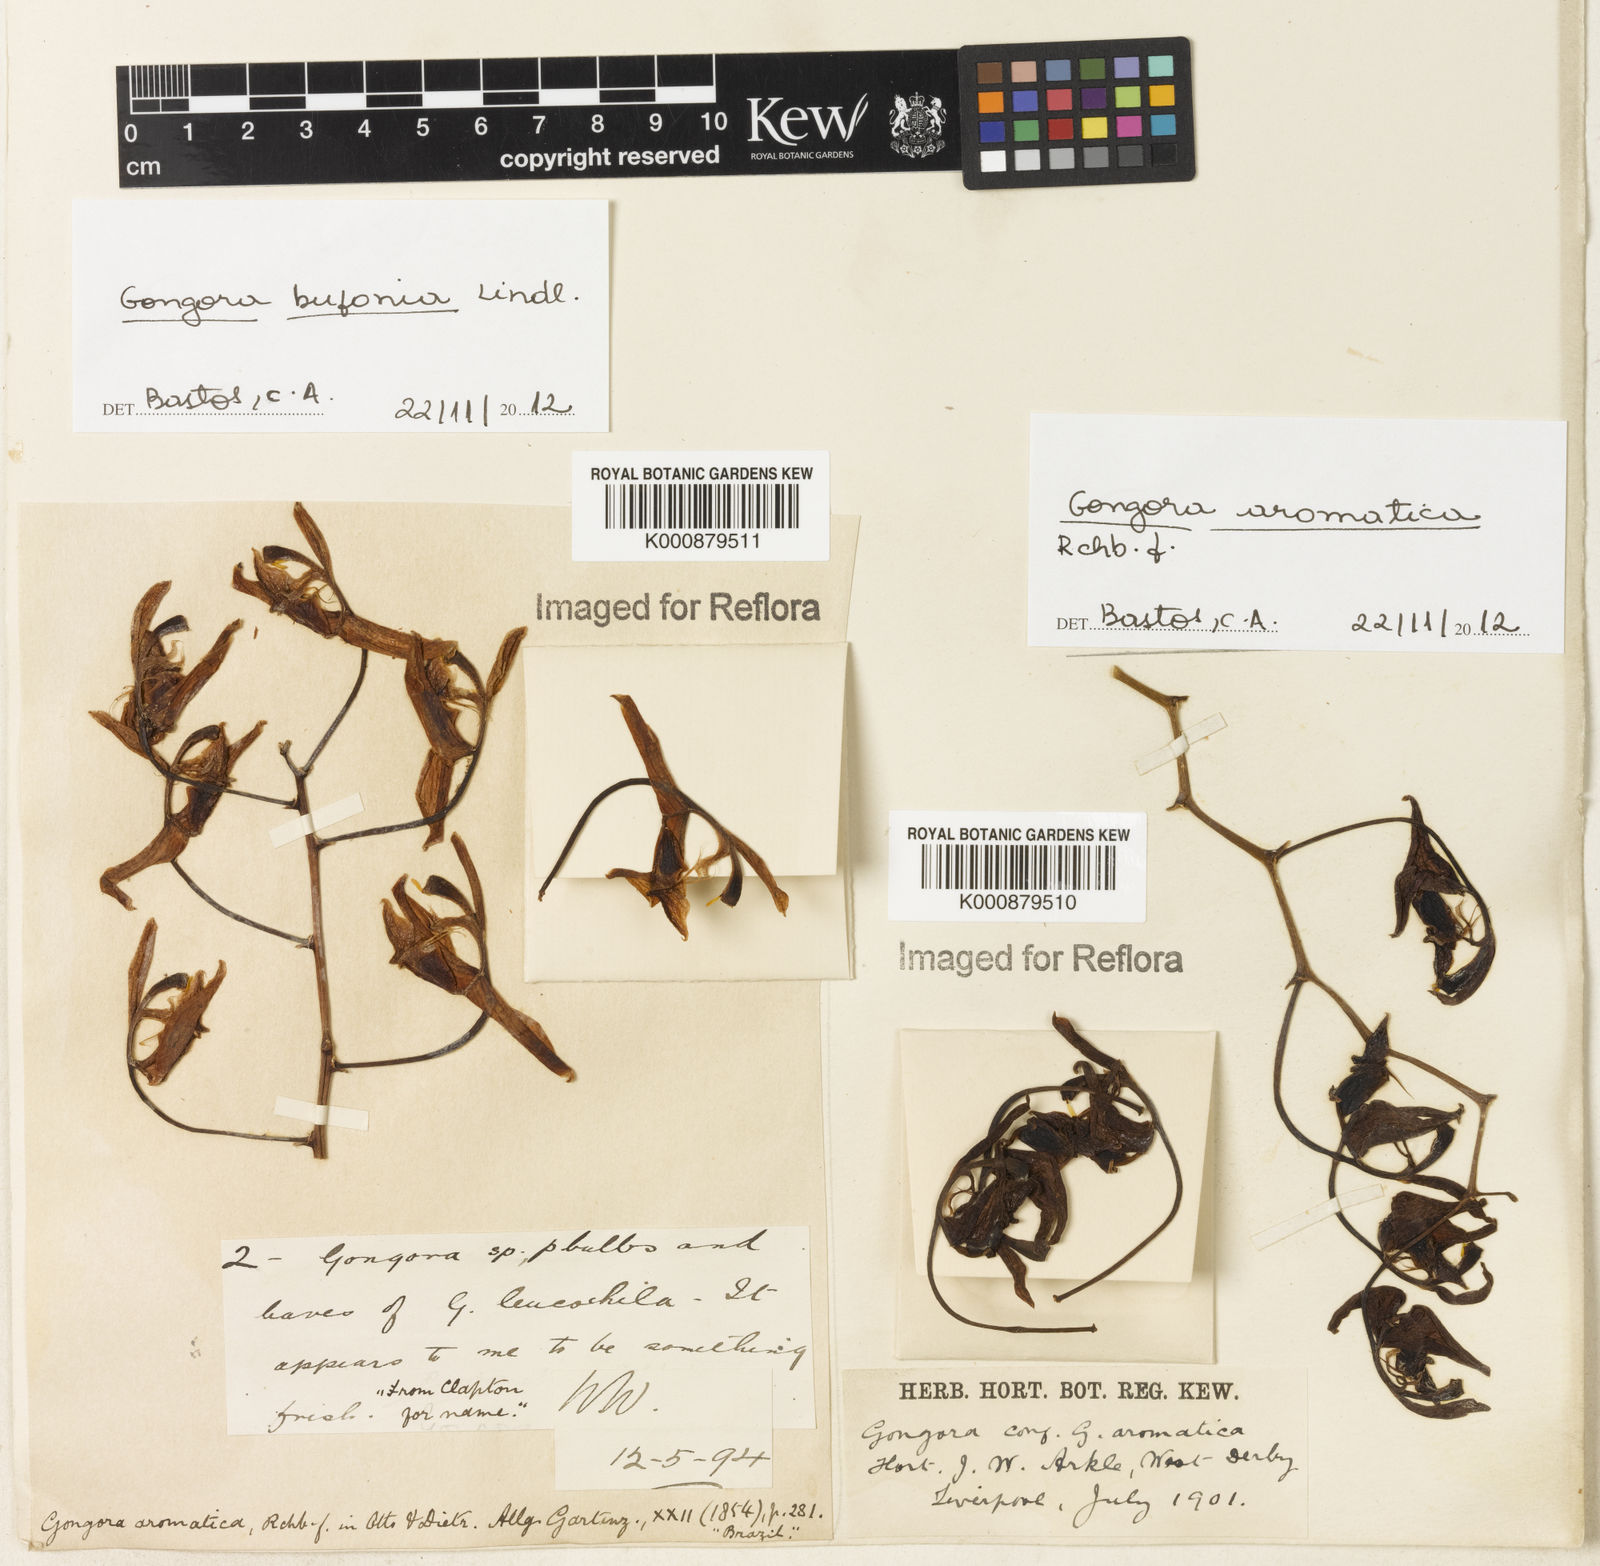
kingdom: Plantae
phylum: Tracheophyta
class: Liliopsida
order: Asparagales
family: Orchidaceae
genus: Gongora
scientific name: Gongora aromatica
